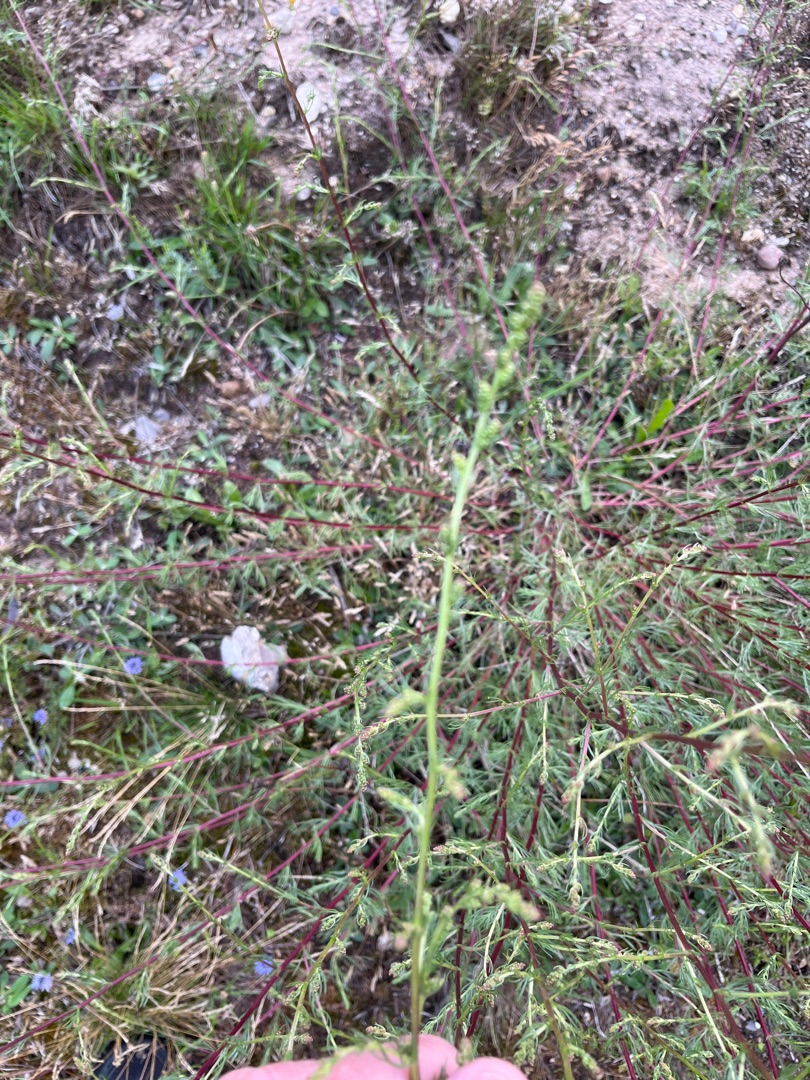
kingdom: Plantae
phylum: Tracheophyta
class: Magnoliopsida
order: Asterales
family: Asteraceae
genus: Artemisia
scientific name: Artemisia campestris
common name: Mark-bynke
